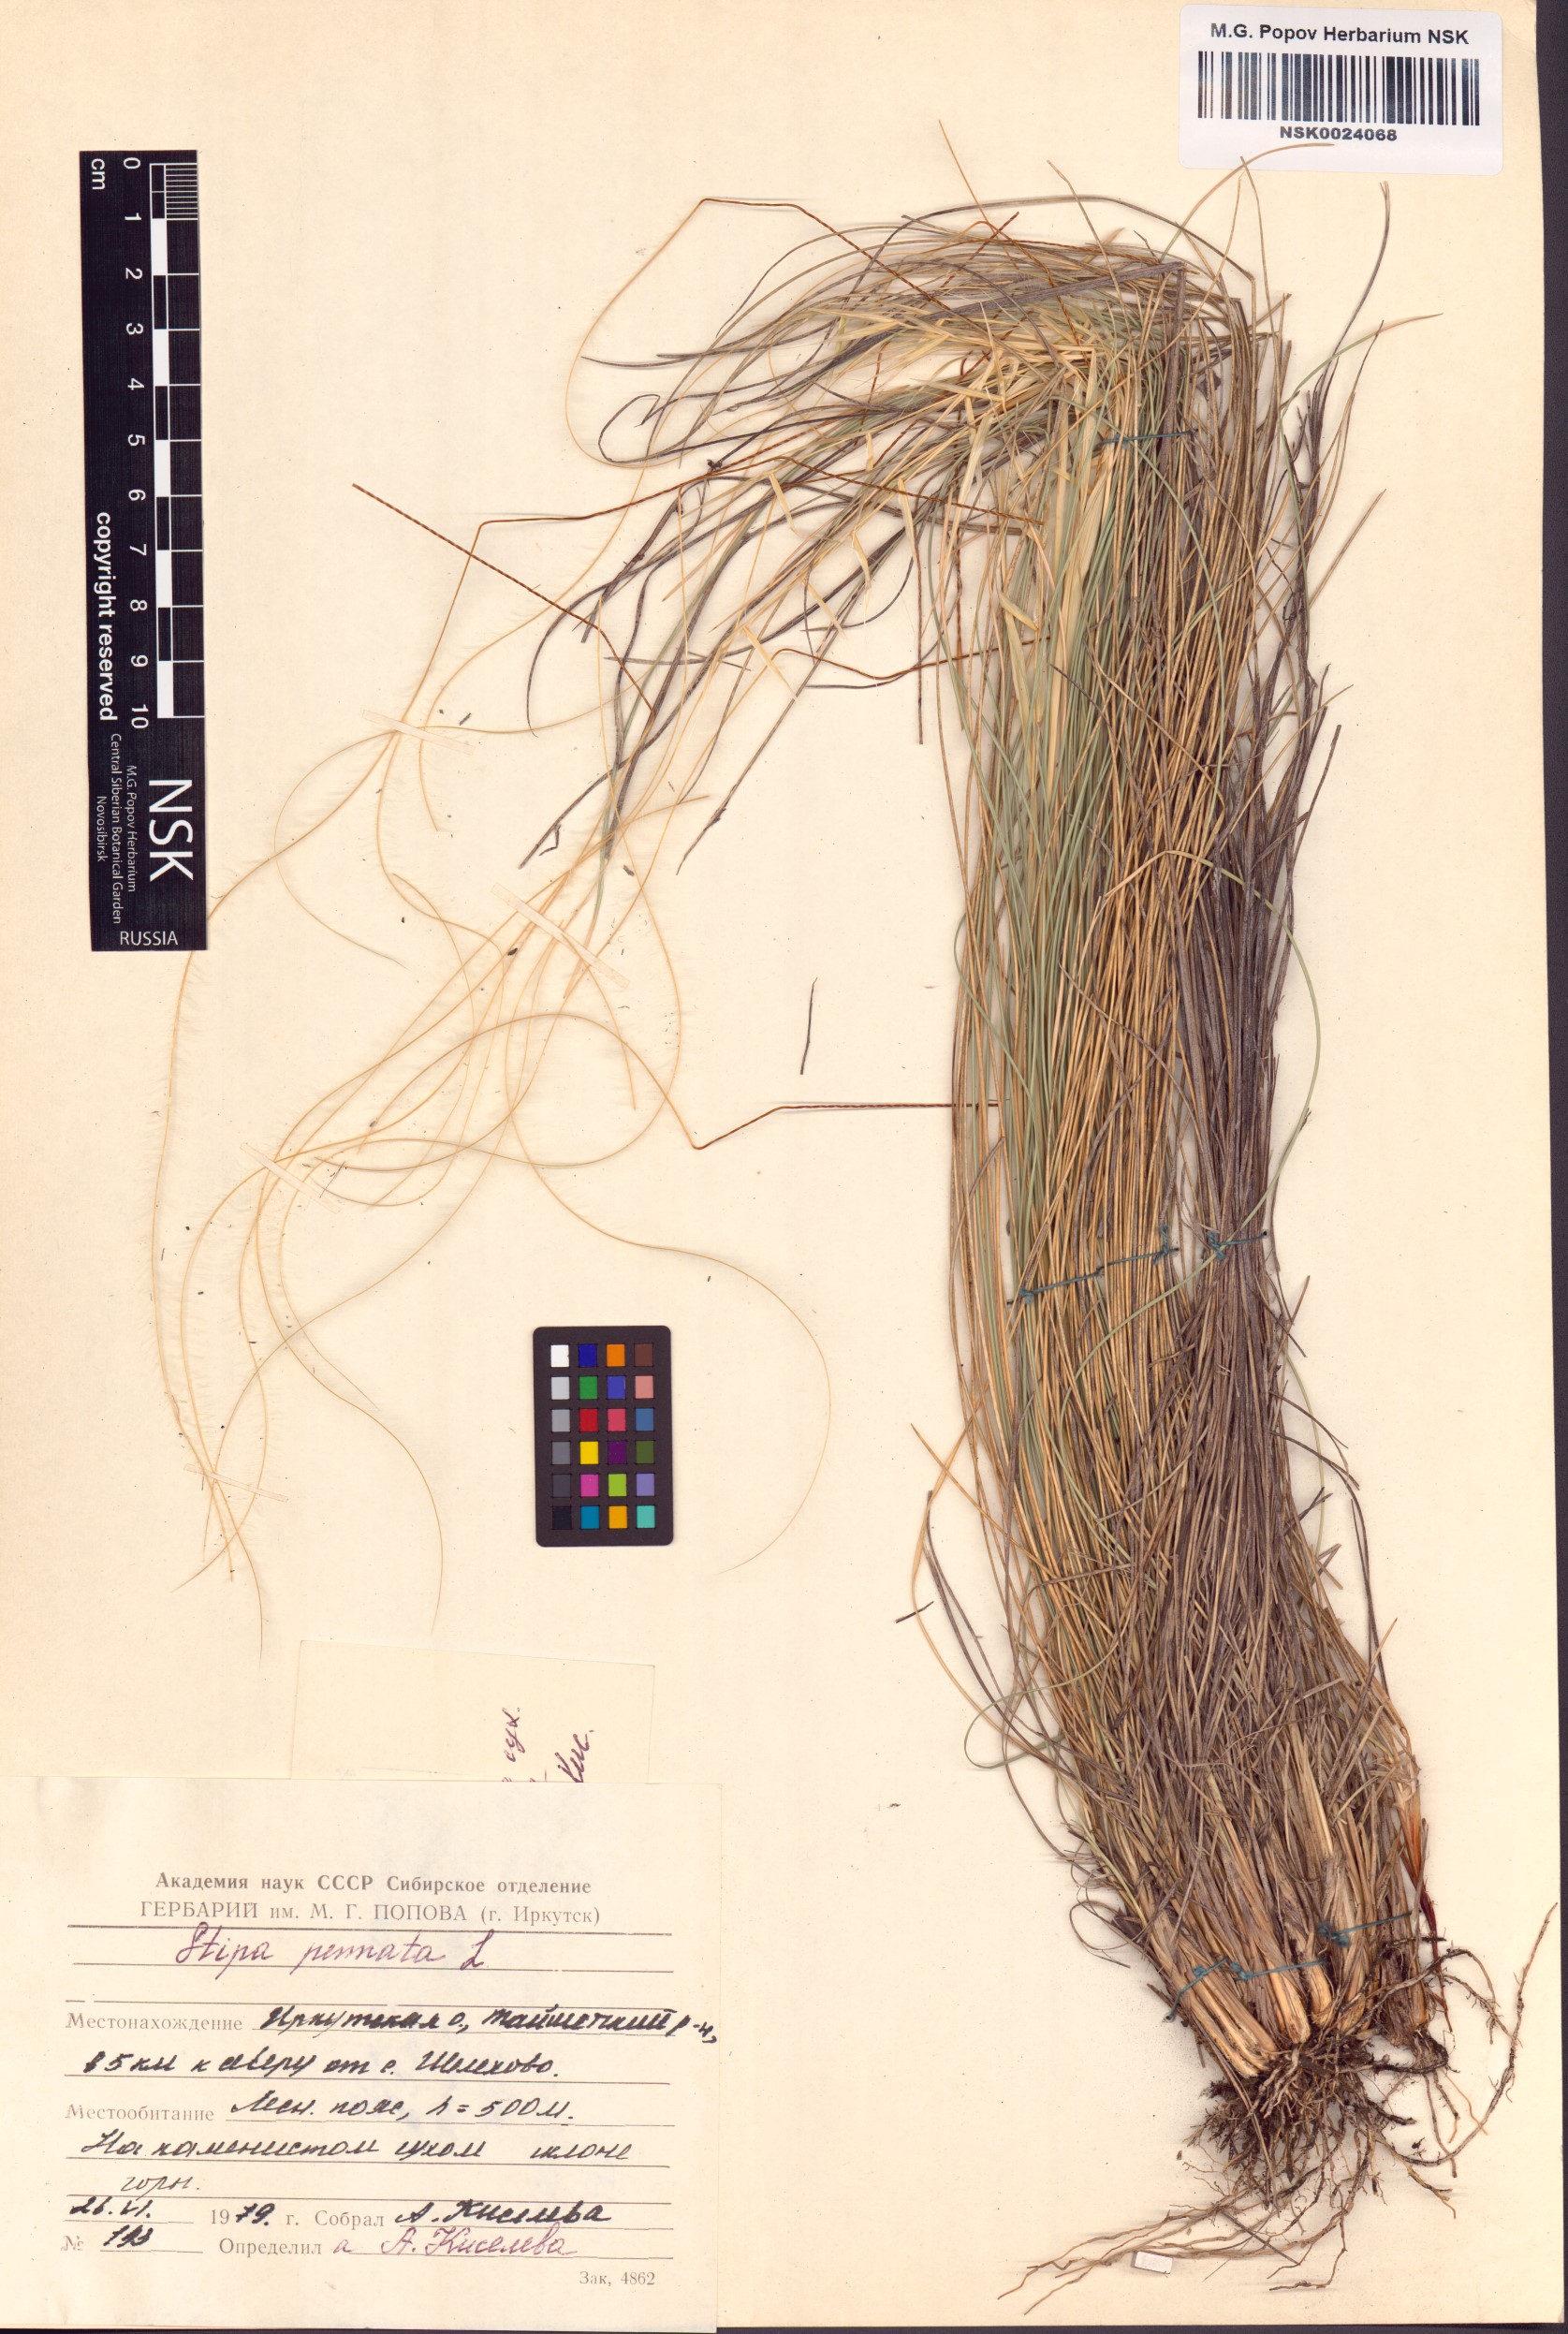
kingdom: Plantae
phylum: Tracheophyta
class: Liliopsida
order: Poales
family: Poaceae
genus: Stipa
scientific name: Stipa pennata
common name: European feather grass
